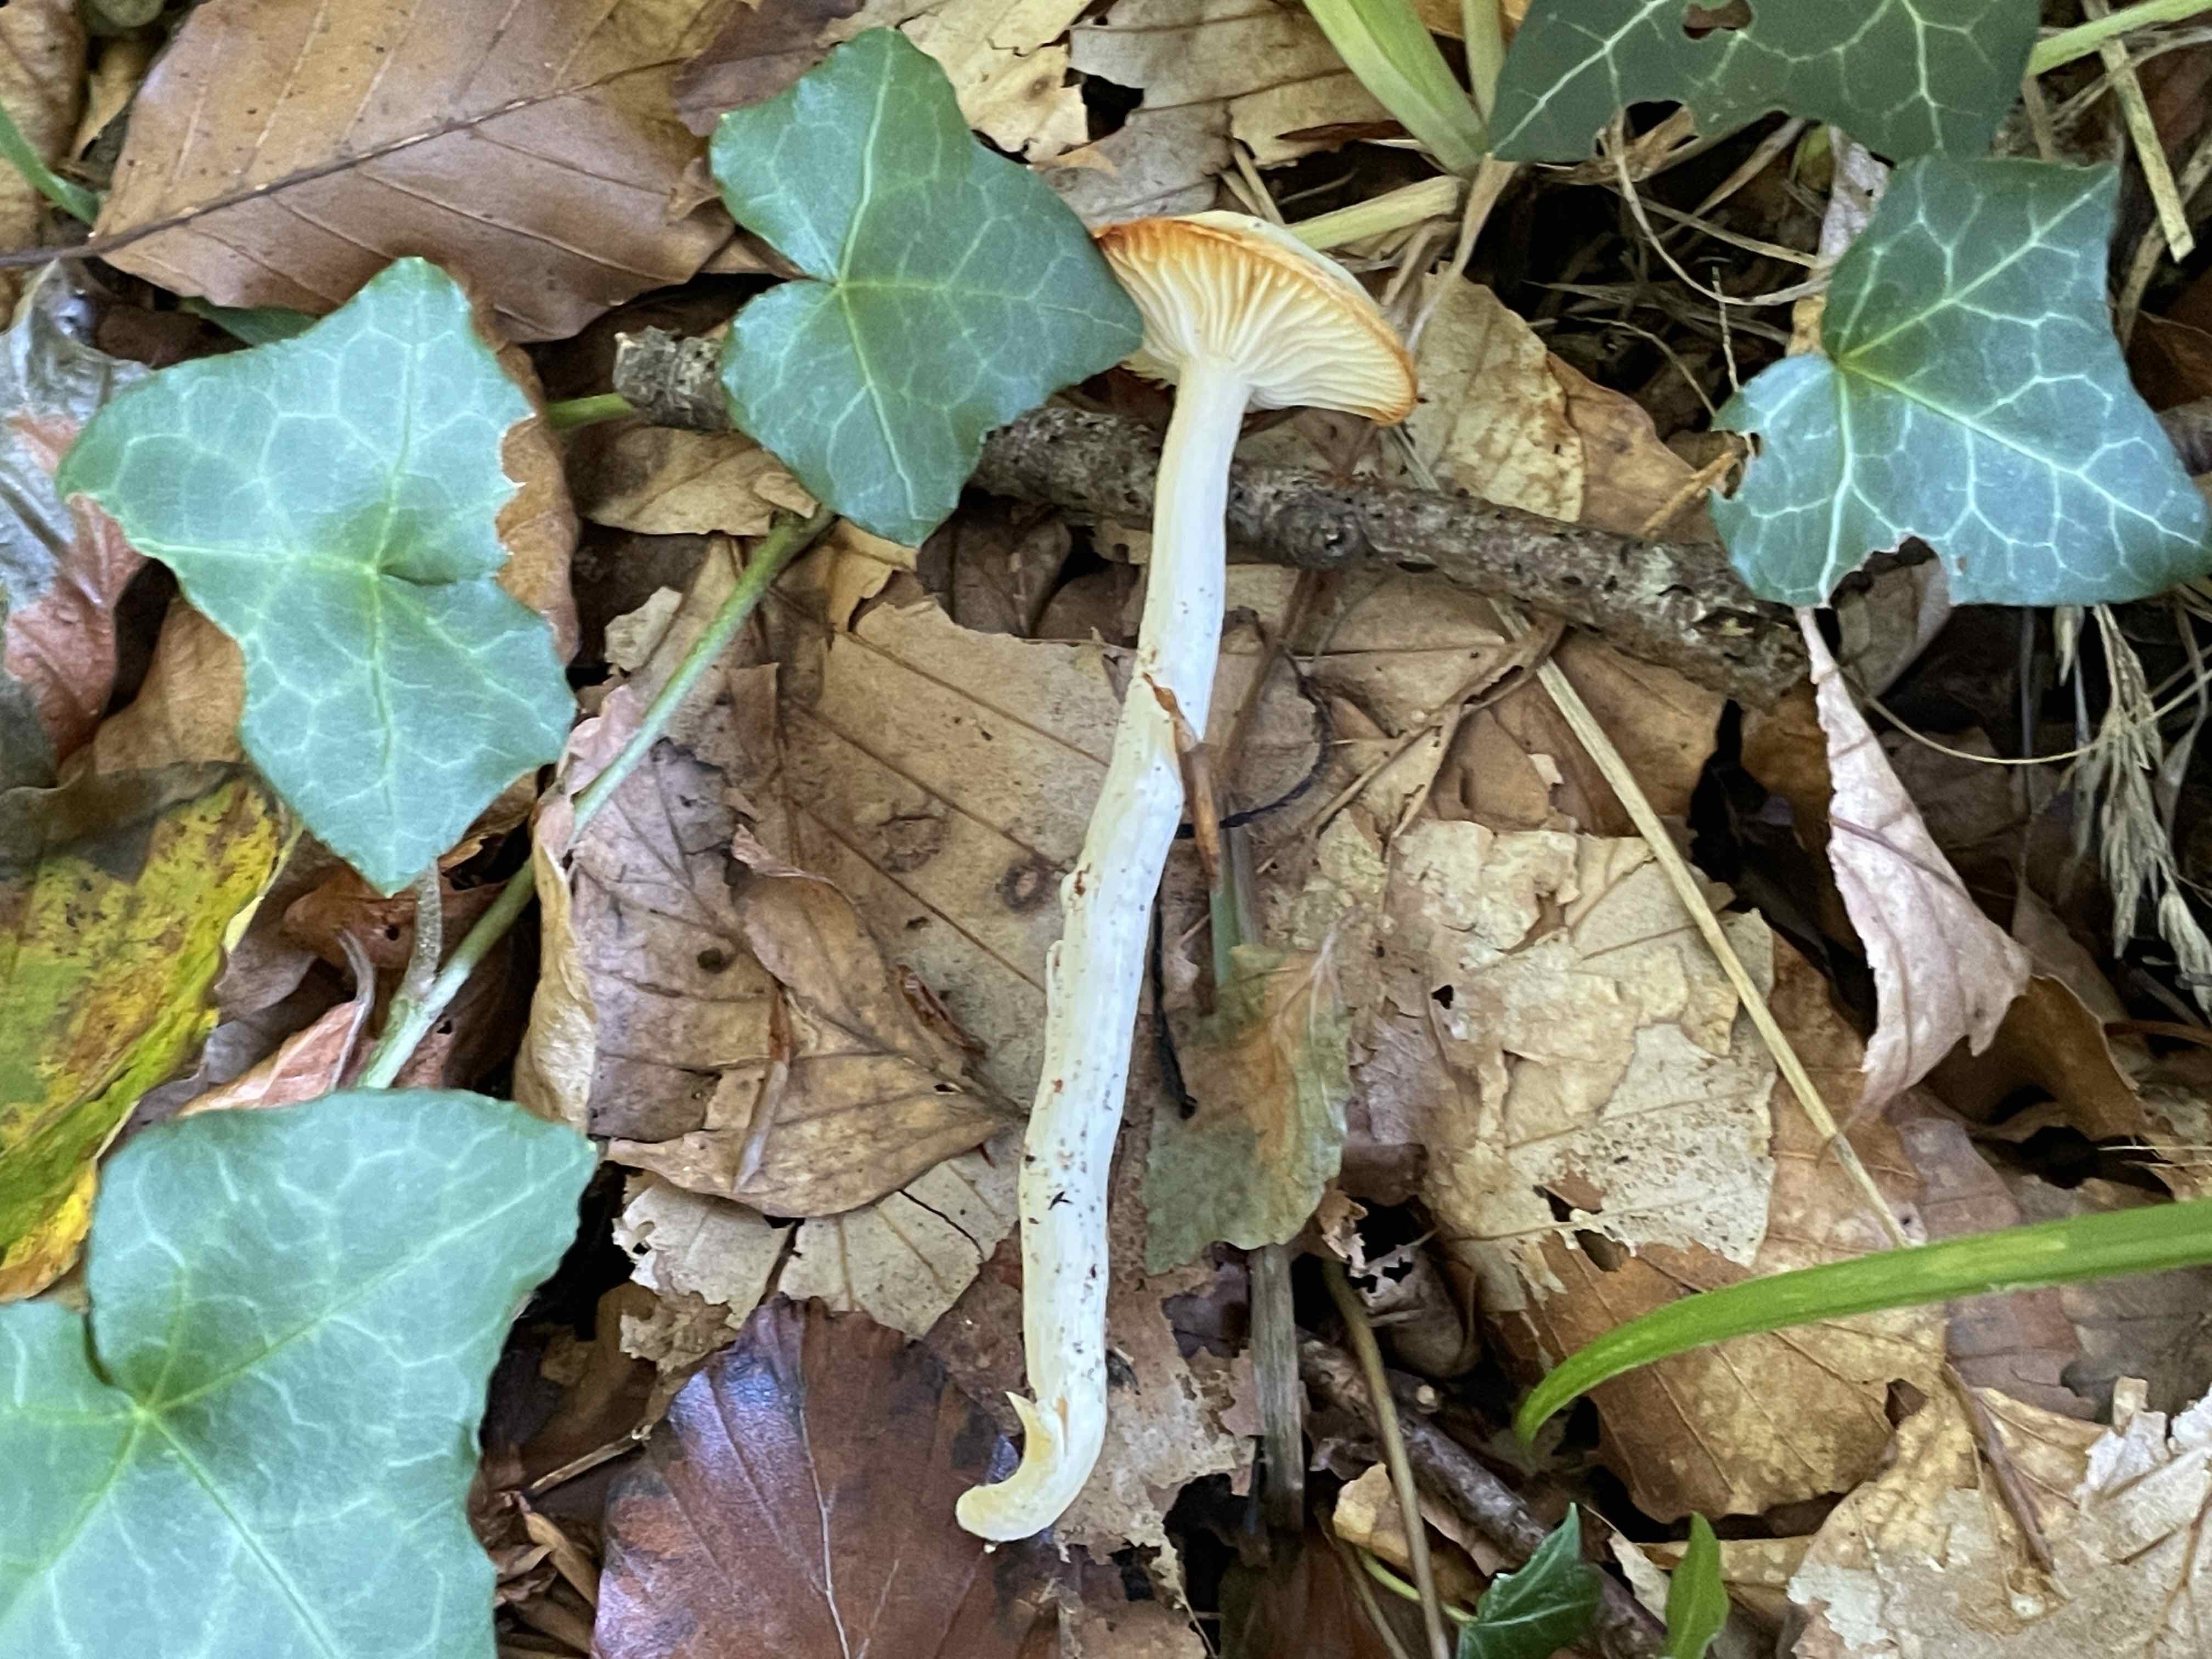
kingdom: Fungi
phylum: Basidiomycota
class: Agaricomycetes
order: Agaricales
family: Hygrophoraceae
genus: Hygrophorus
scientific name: Hygrophorus discoxanthus
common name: ildelugtende sneglehat
